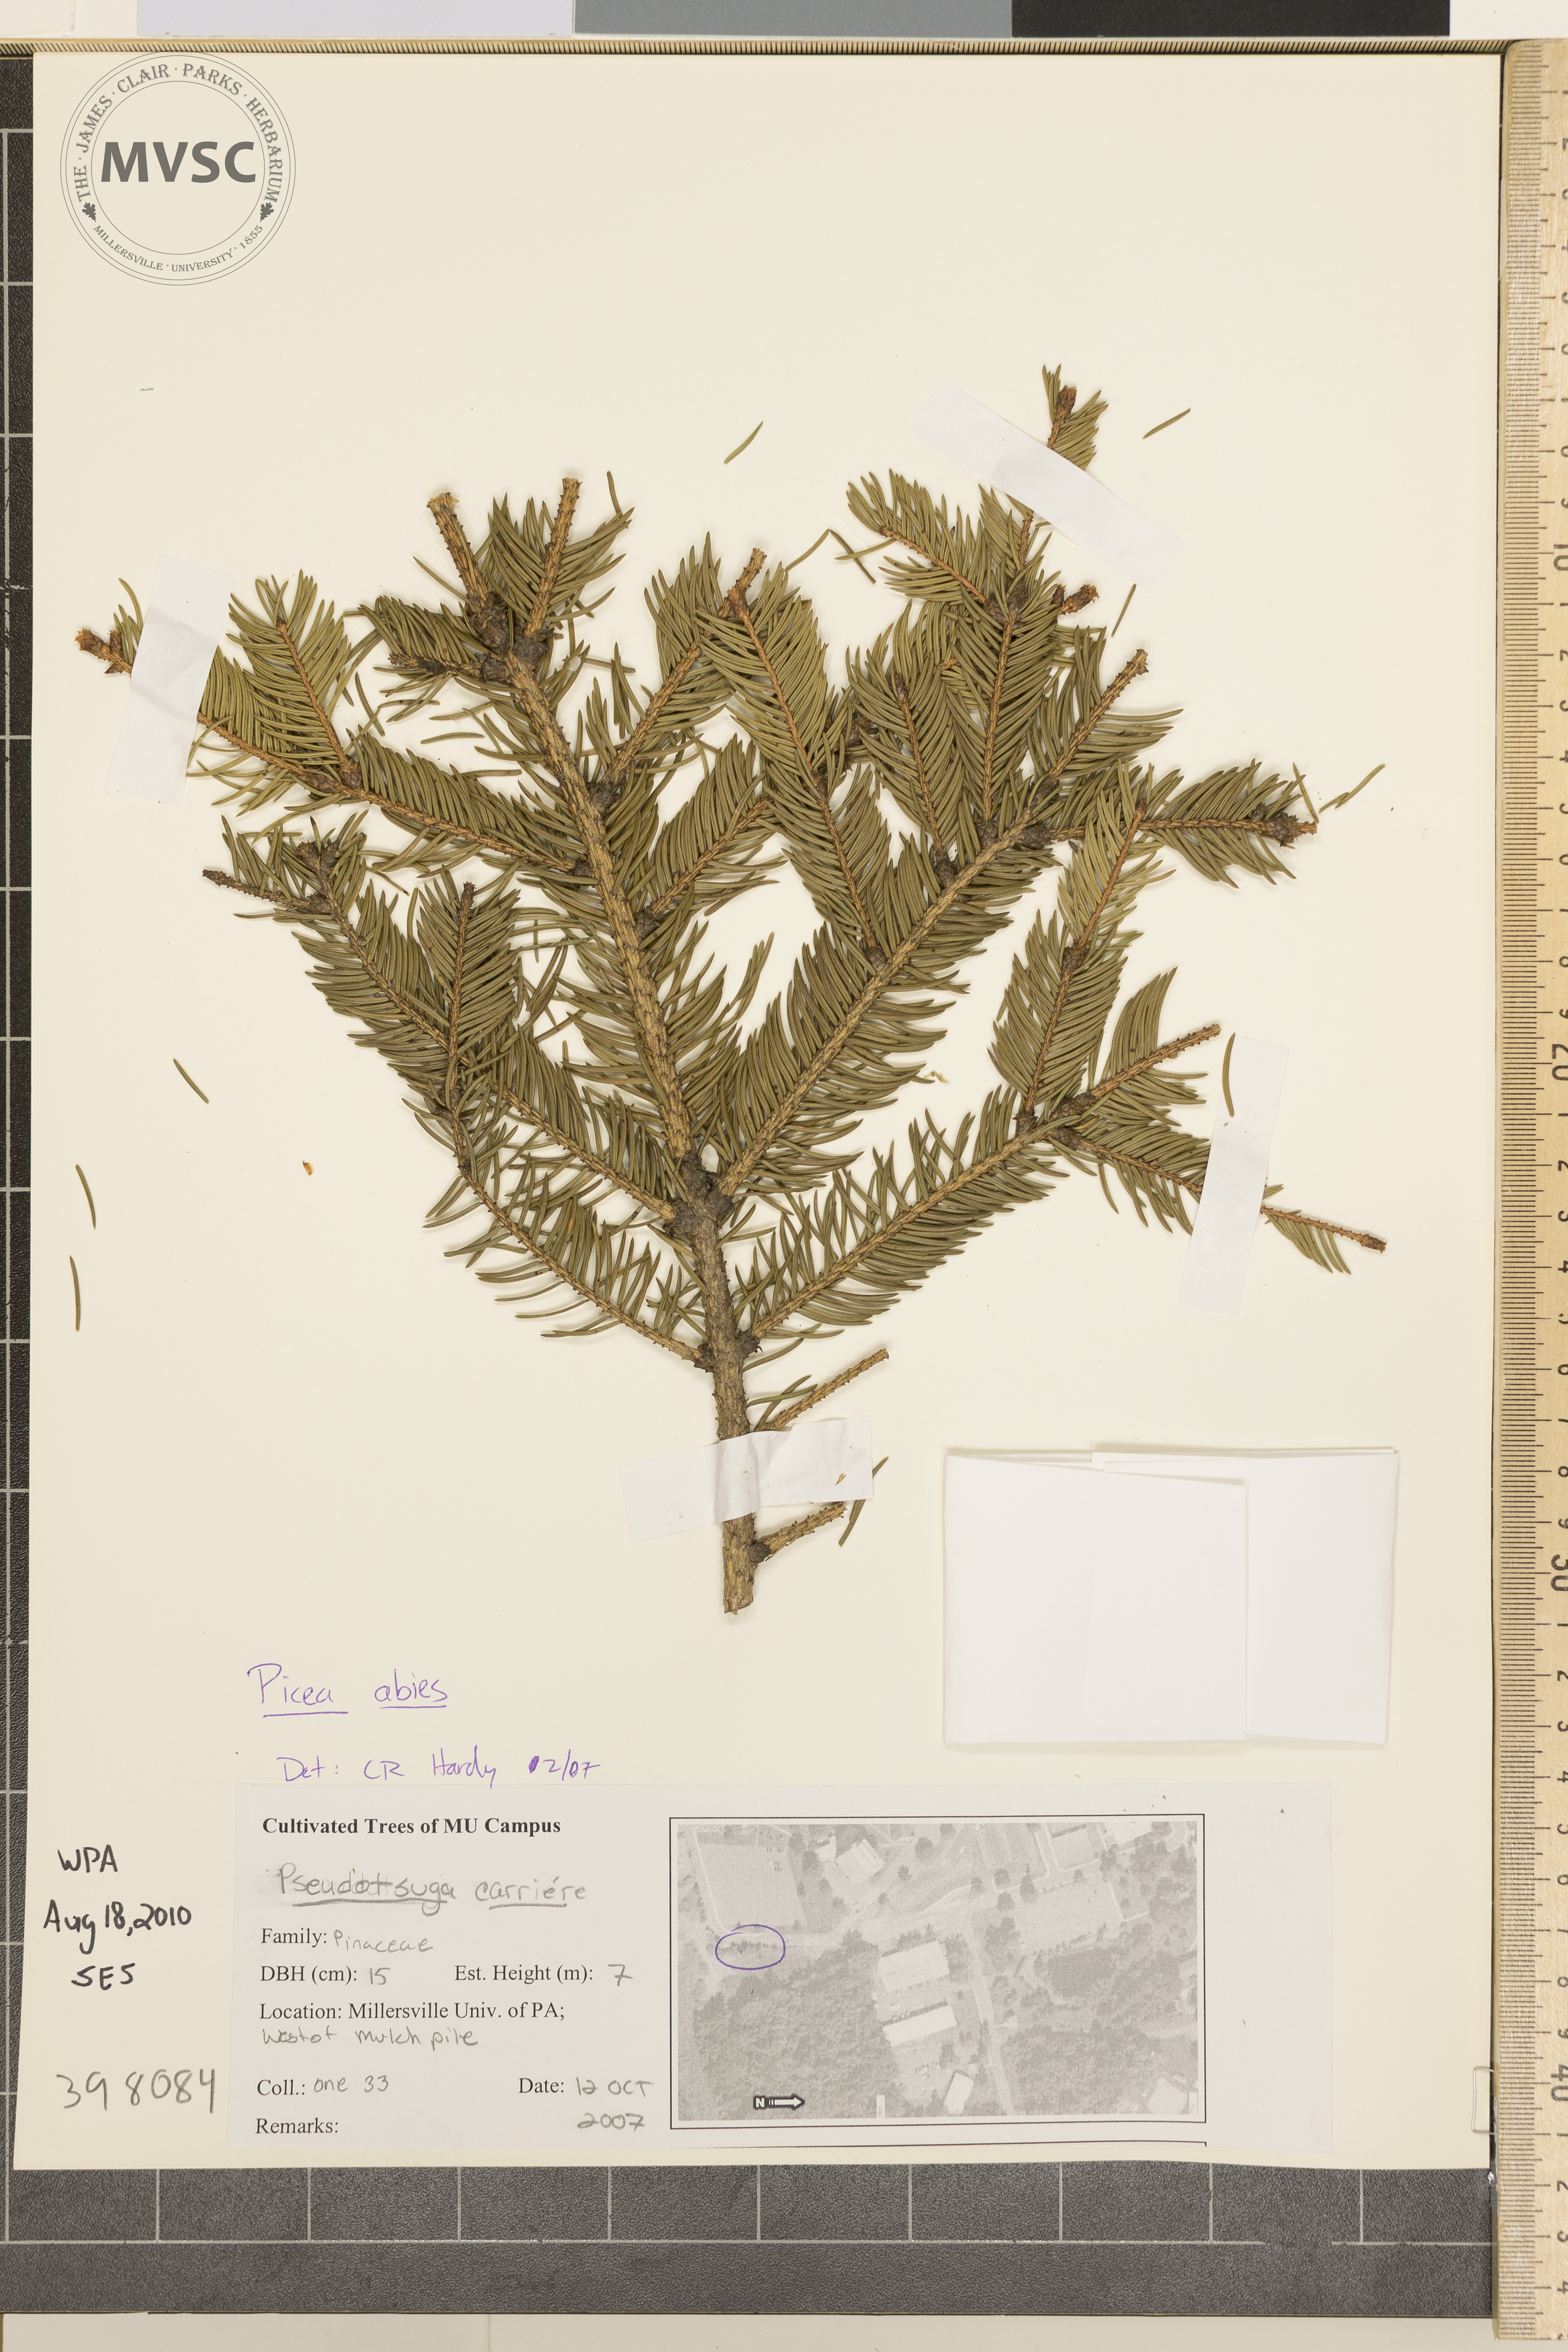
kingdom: Plantae
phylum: Tracheophyta
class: Pinopsida
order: Pinales
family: Pinaceae
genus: Picea
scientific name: Picea abies
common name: Norway spruce
